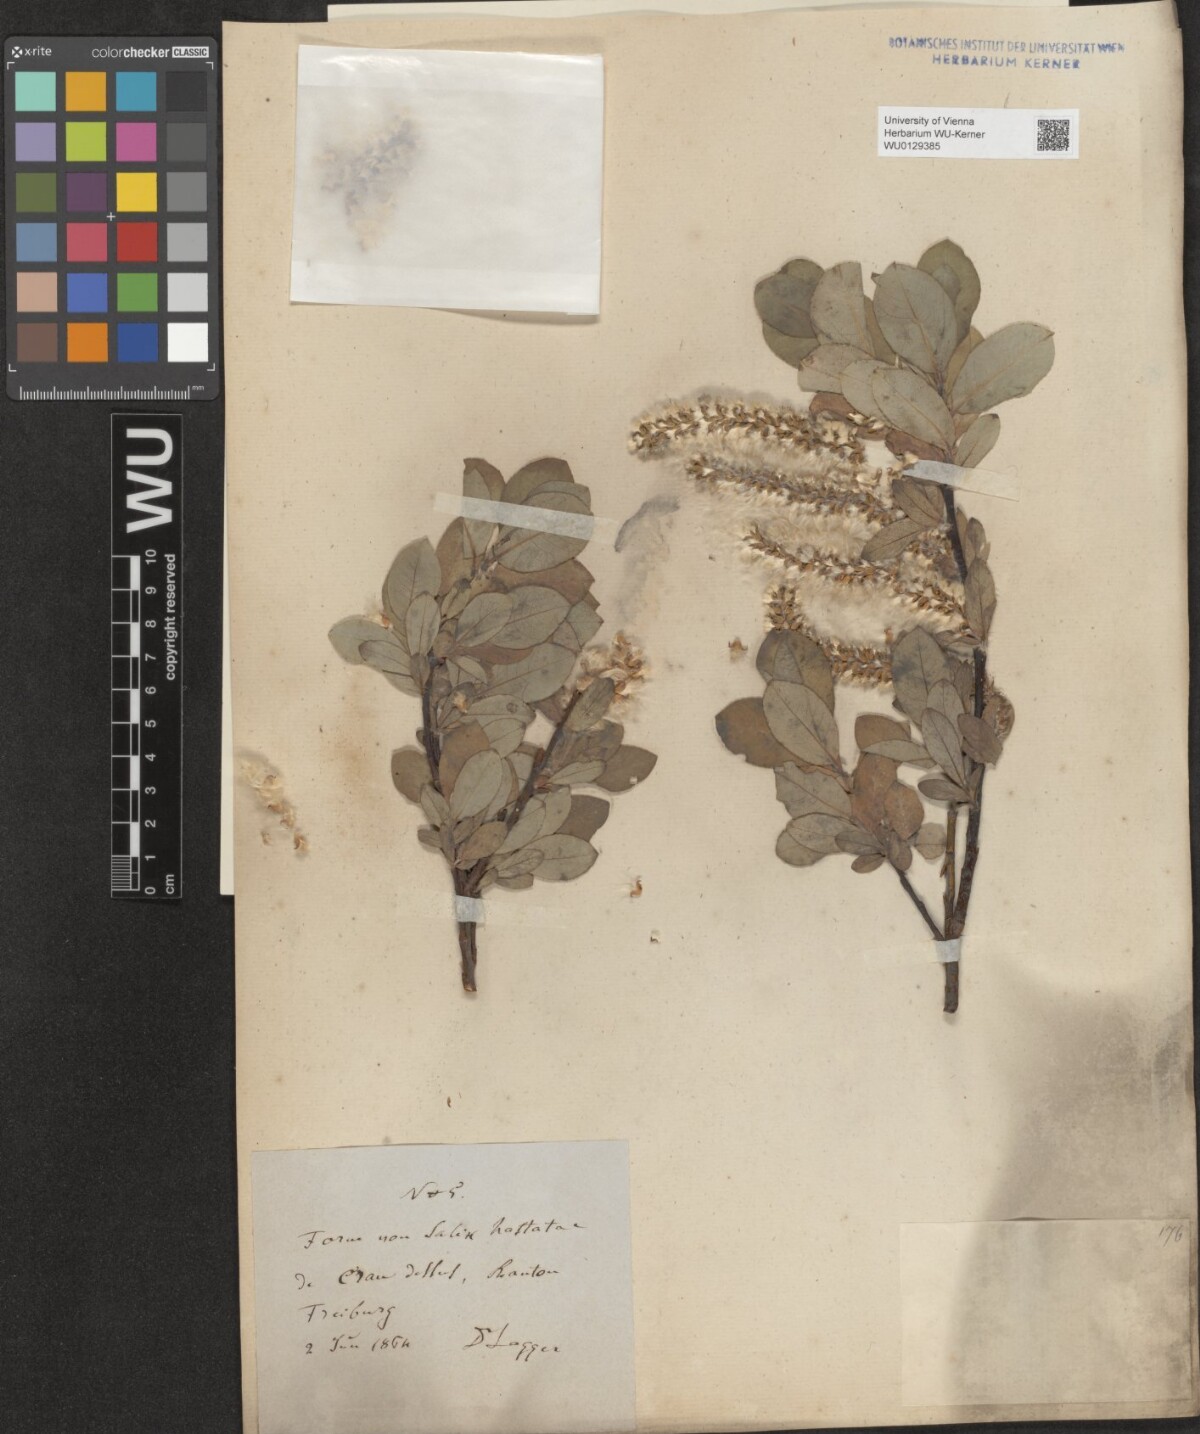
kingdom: Plantae
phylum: Tracheophyta
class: Magnoliopsida
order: Malpighiales
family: Salicaceae
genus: Salix
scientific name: Salix hastata
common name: Halberd willow
